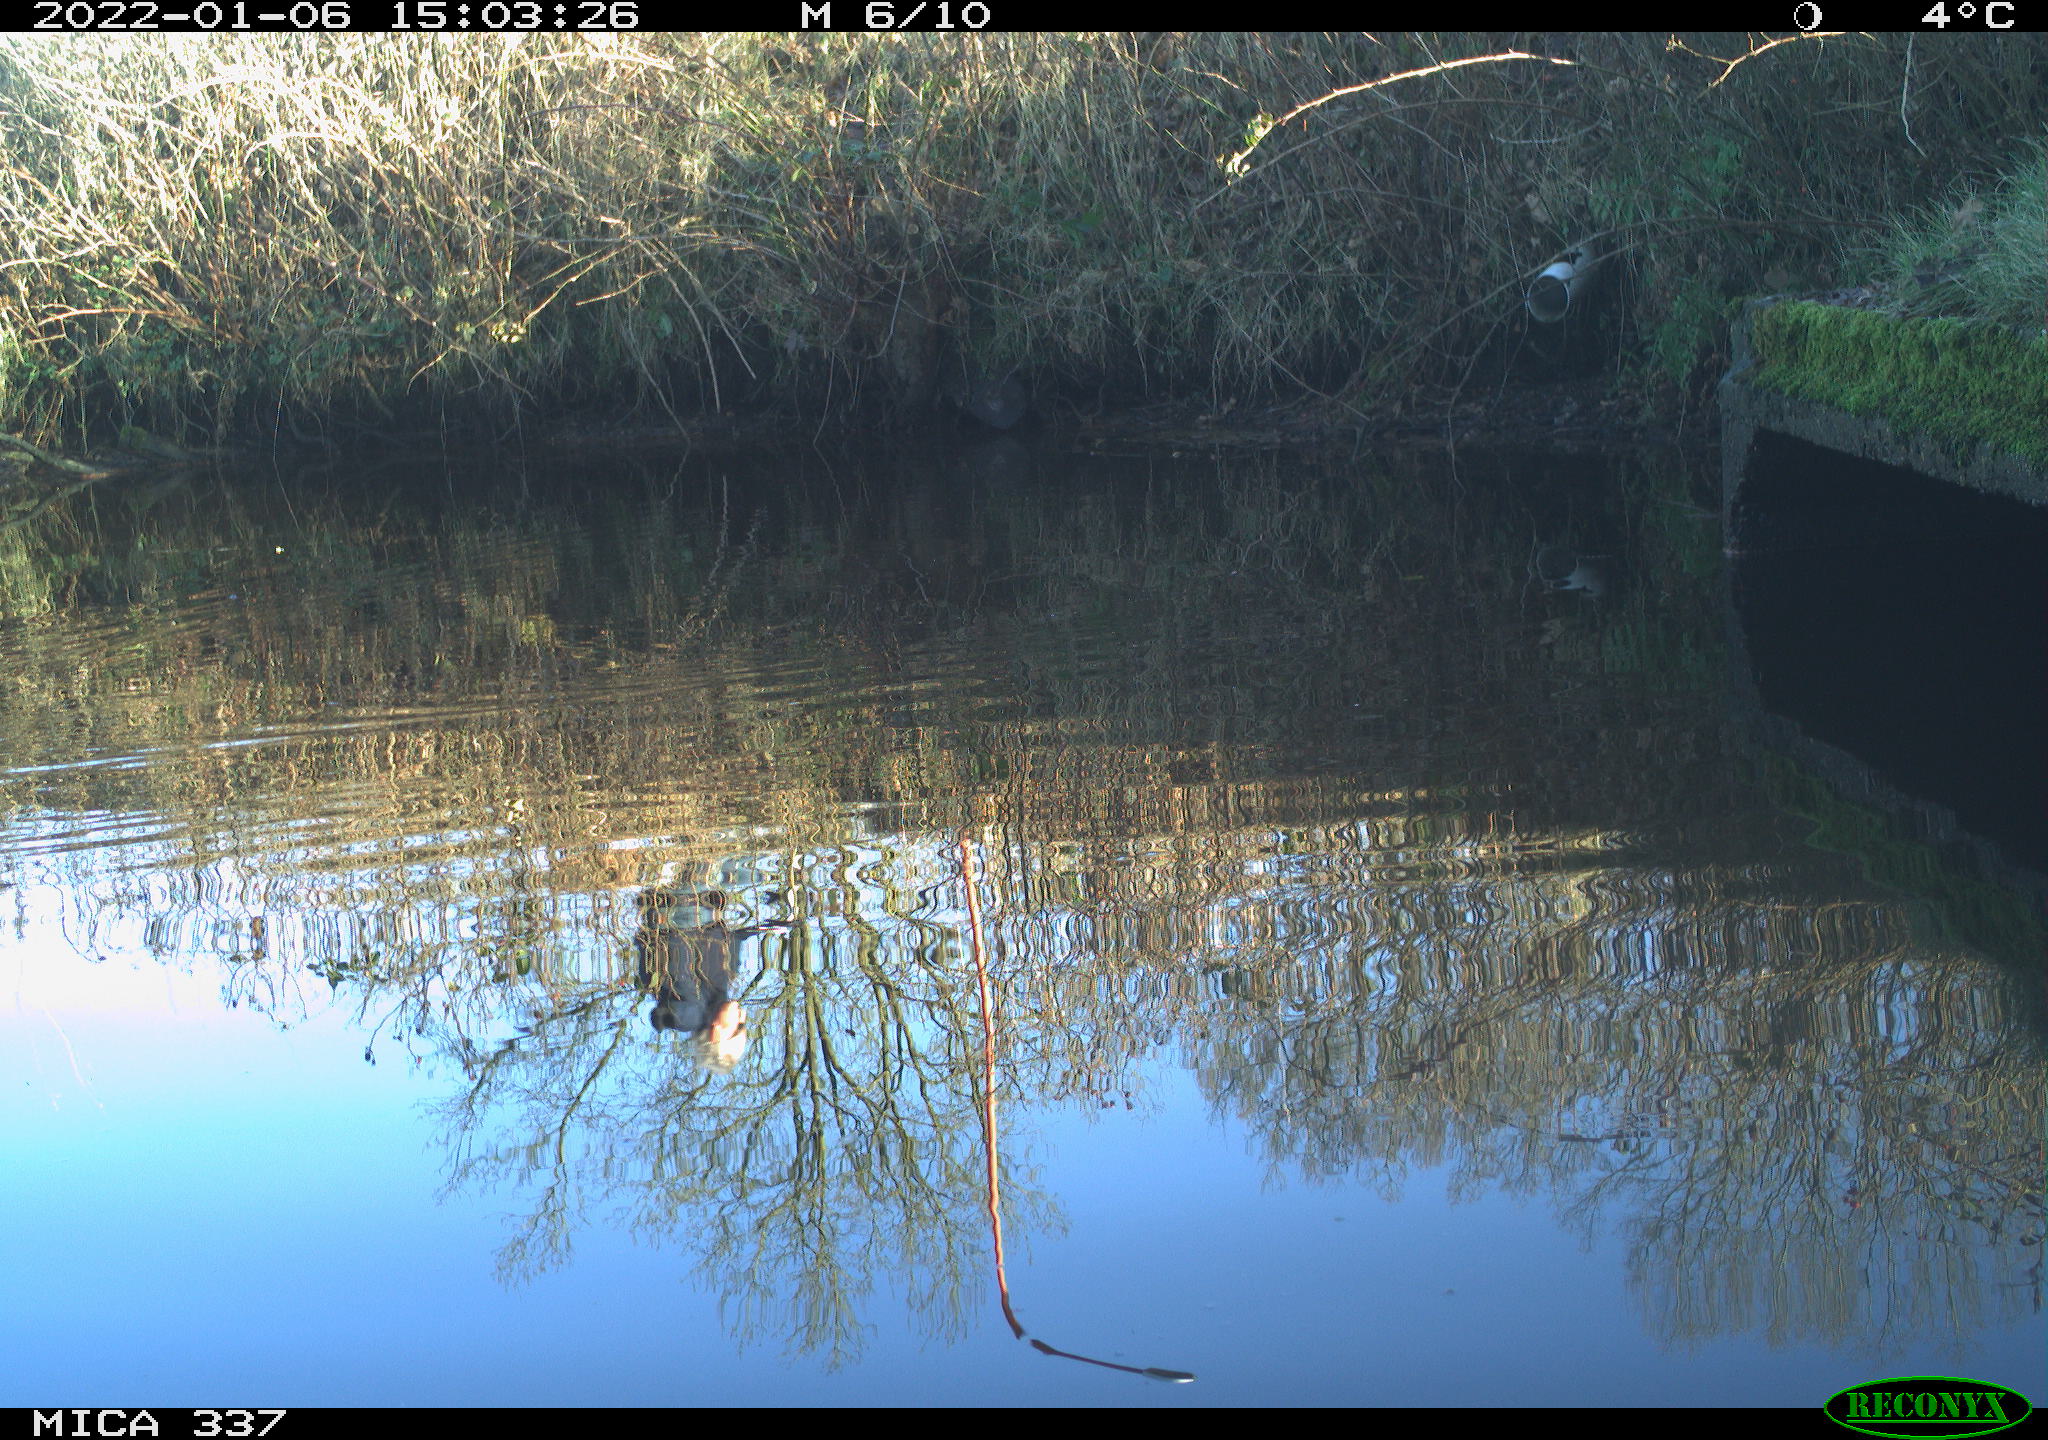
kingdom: Animalia
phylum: Chordata
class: Aves
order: Anseriformes
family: Anatidae
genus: Anas
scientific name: Anas platyrhynchos
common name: Mallard
